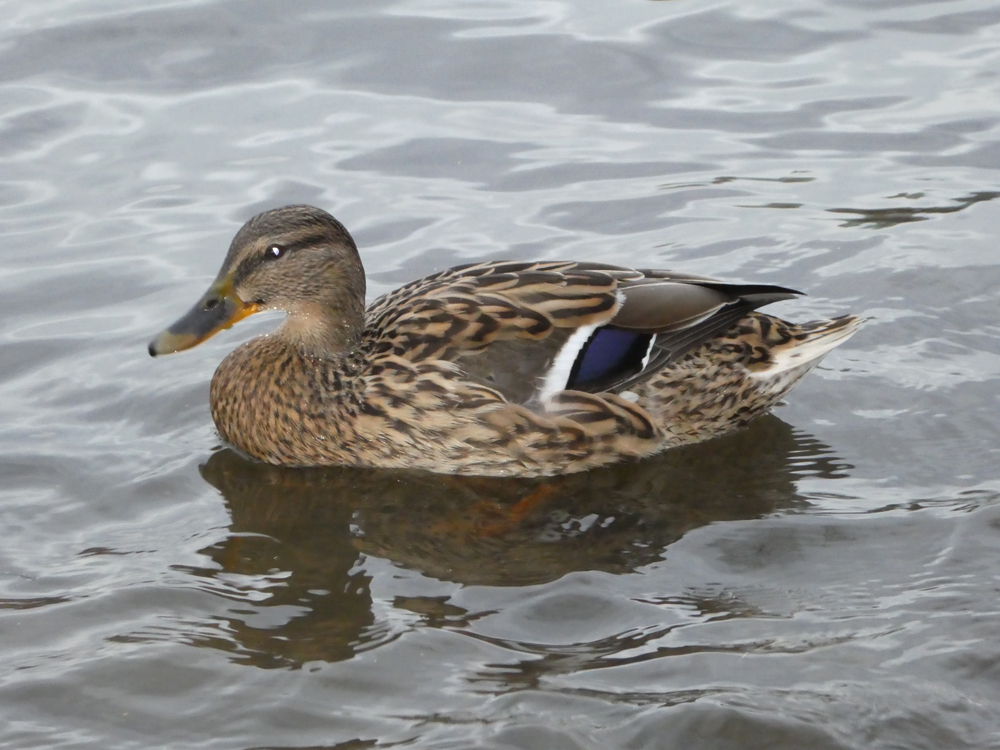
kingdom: Animalia
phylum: Chordata
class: Aves
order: Anseriformes
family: Anatidae
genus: Anas
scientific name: Anas platyrhynchos
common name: Mallard
